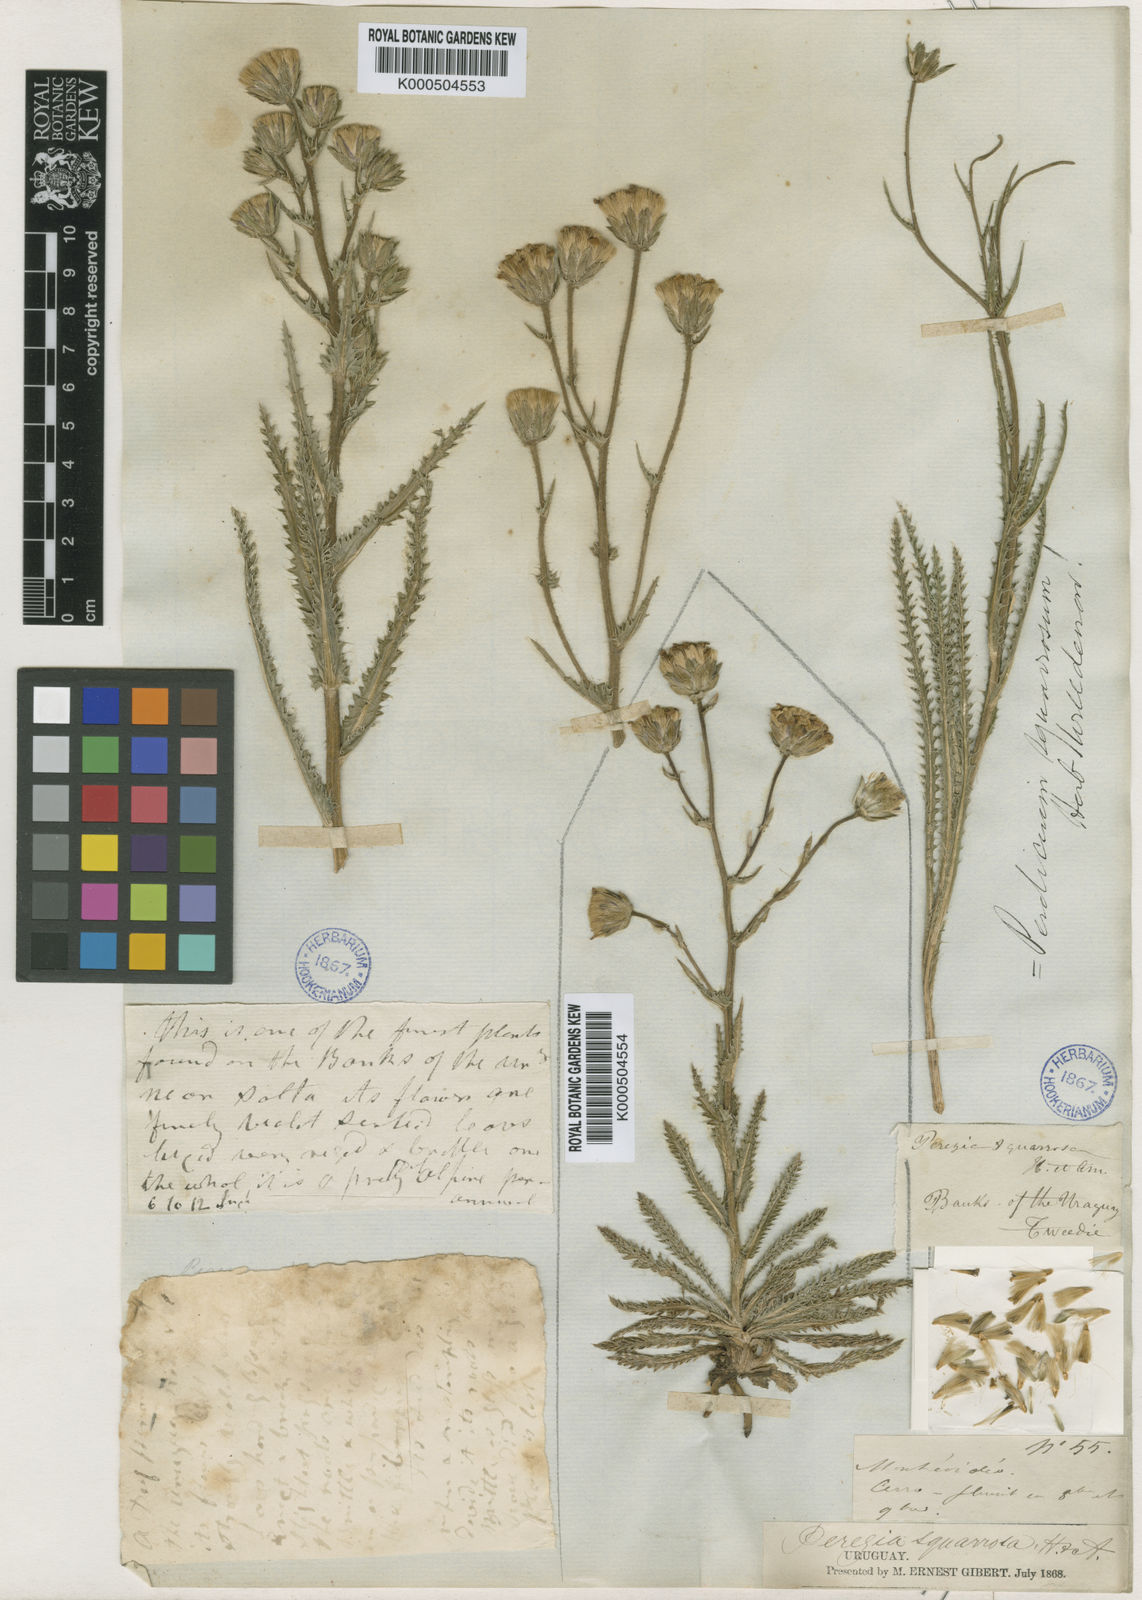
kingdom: Plantae
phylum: Tracheophyta
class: Magnoliopsida
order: Asterales
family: Asteraceae
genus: Perezia
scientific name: Perezia
